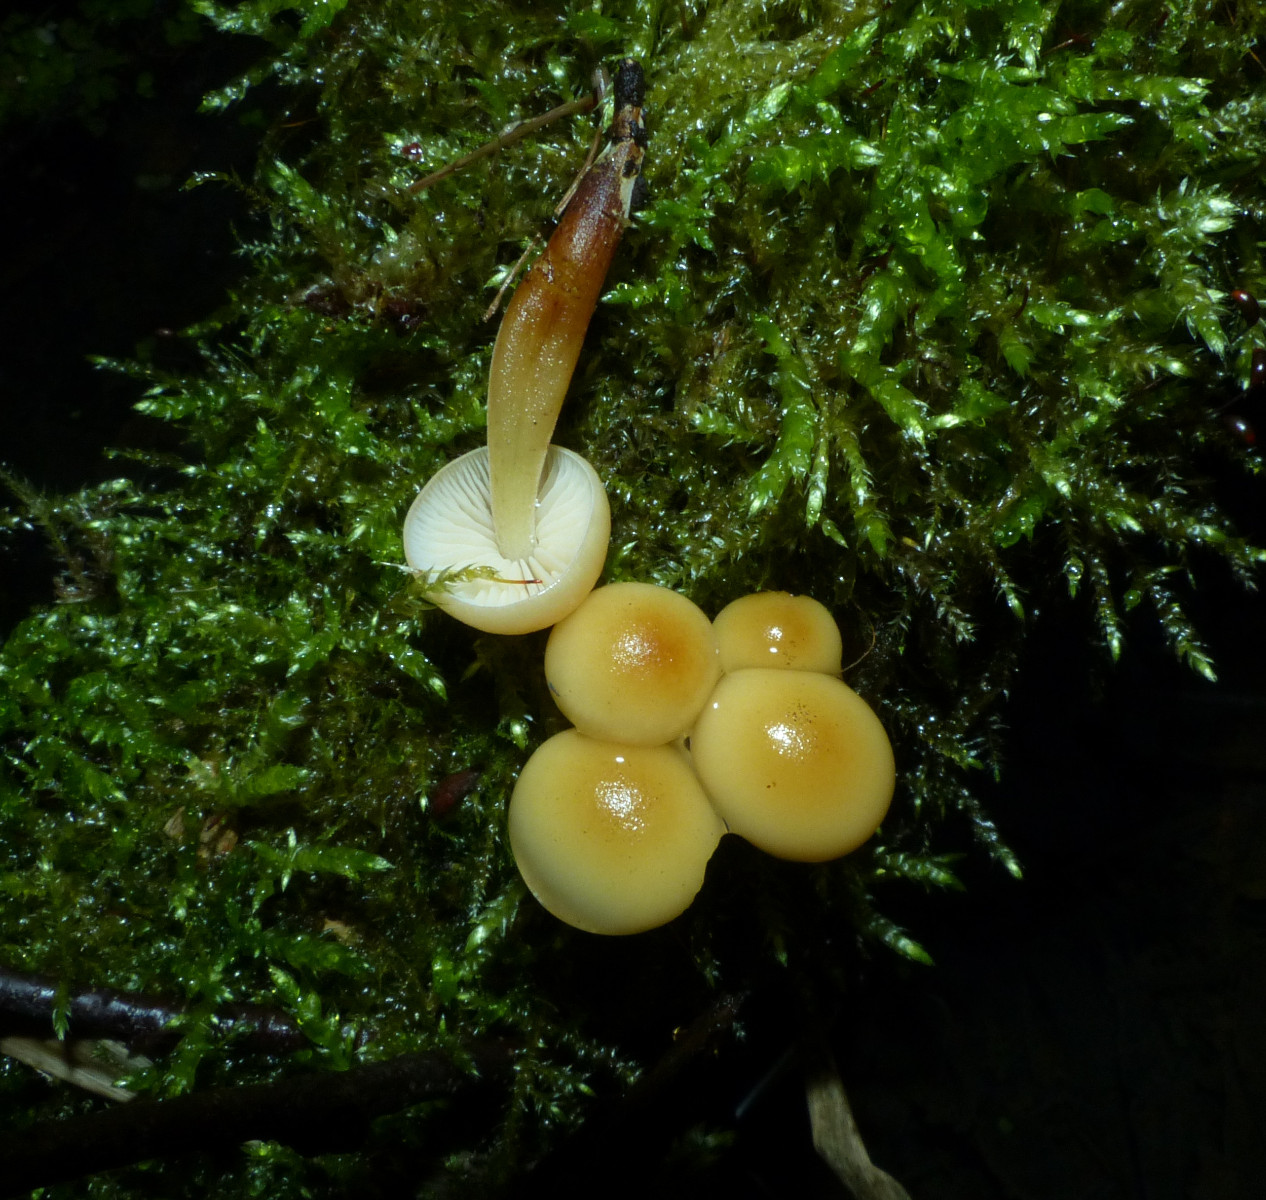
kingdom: Fungi
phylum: Basidiomycota
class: Agaricomycetes
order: Agaricales
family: Physalacriaceae
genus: Flammulina
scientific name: Flammulina velutipes
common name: gul fløjlsfod
